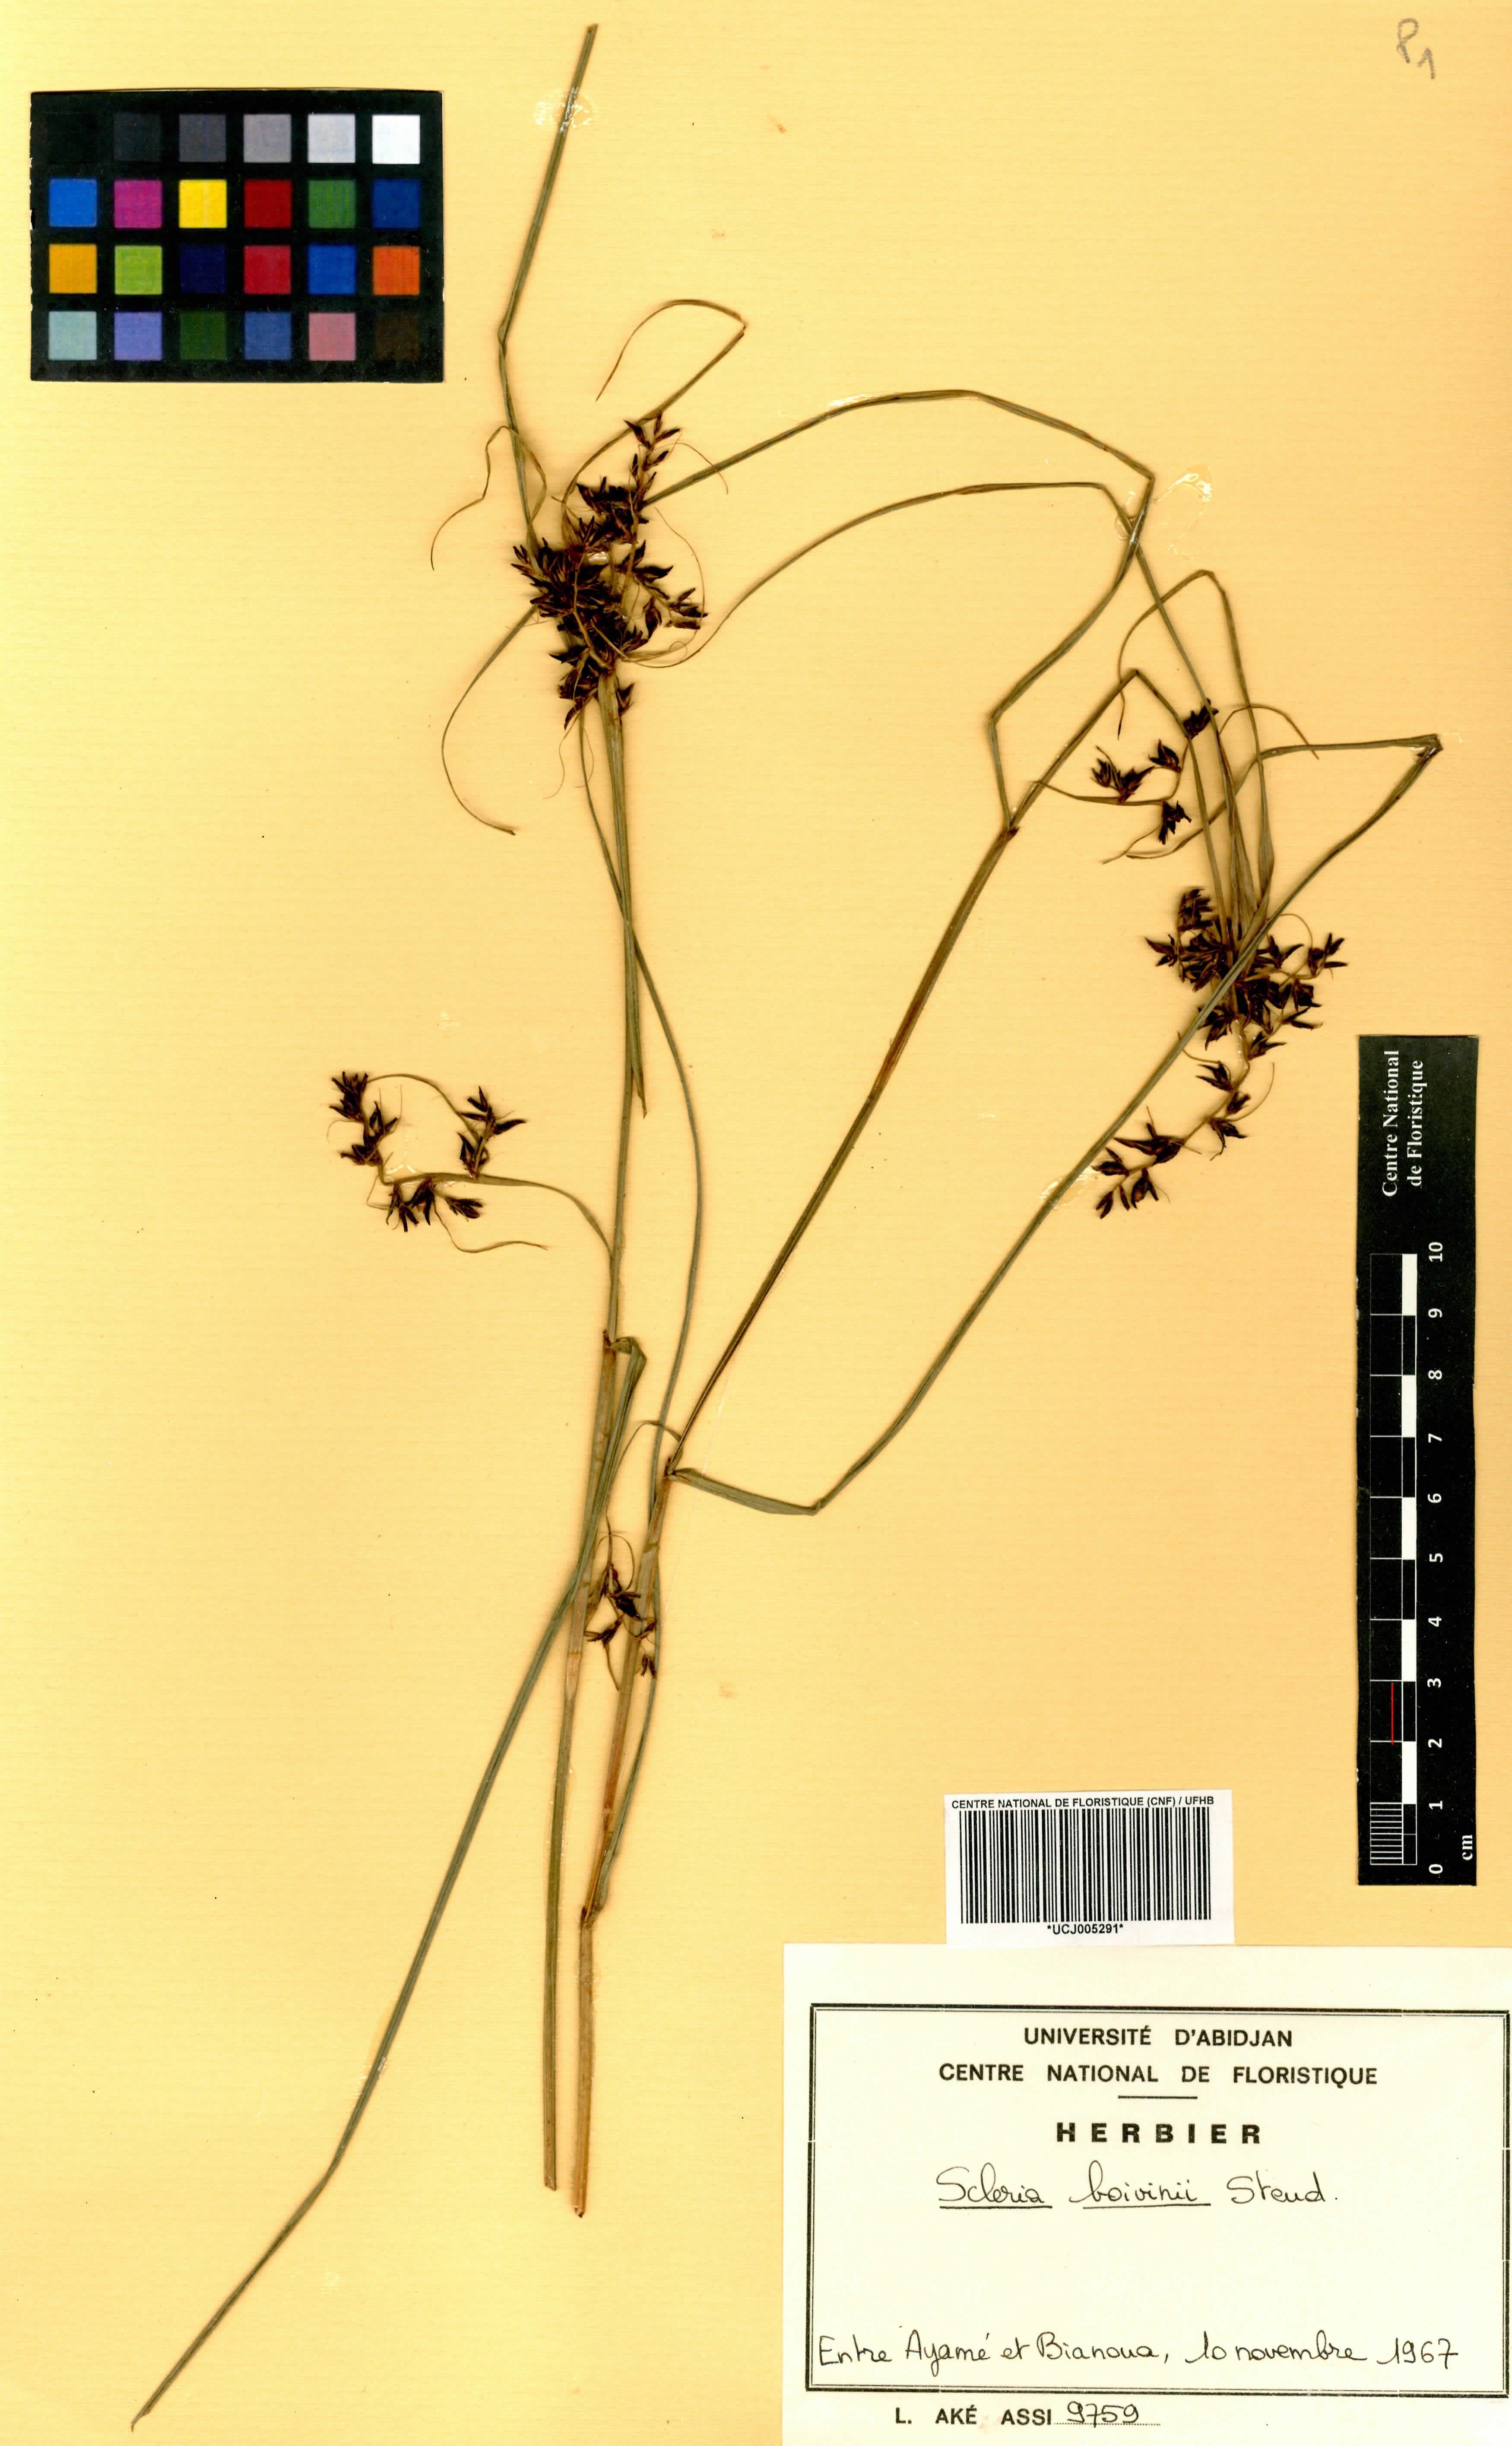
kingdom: Plantae
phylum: Tracheophyta
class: Liliopsida
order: Poales
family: Cyperaceae
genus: Scleria
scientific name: Scleria boivinii
